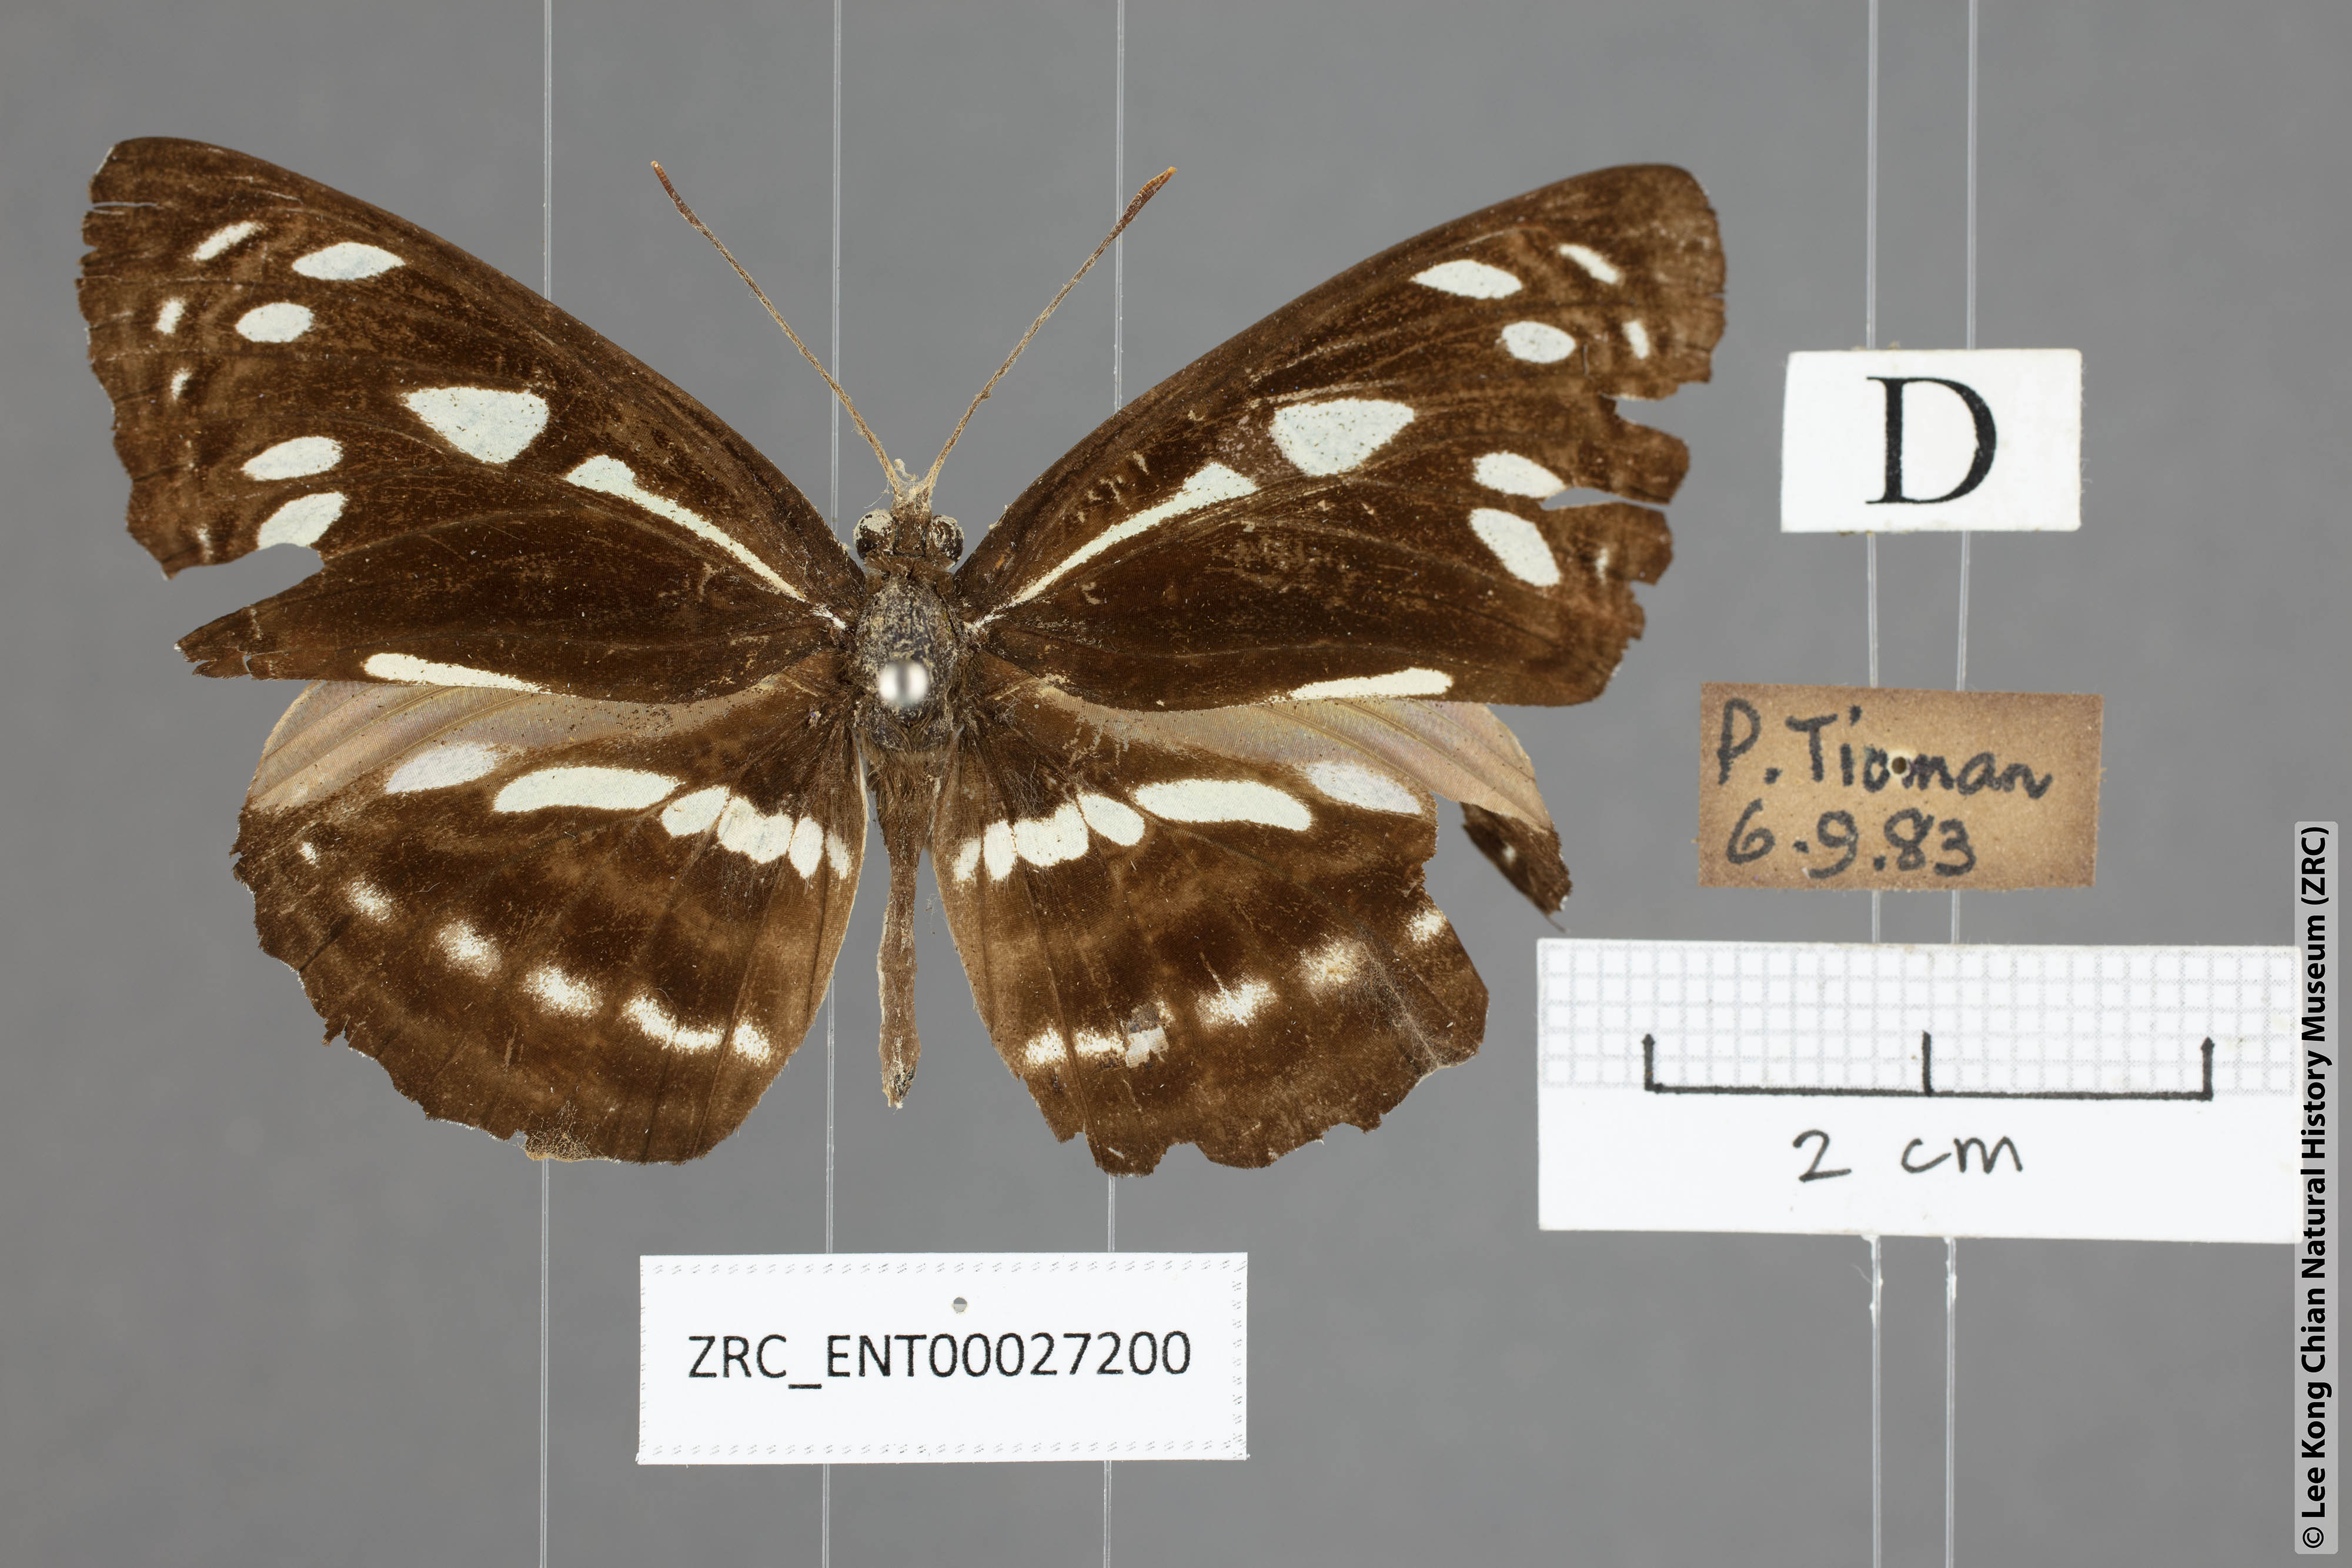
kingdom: Animalia
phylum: Arthropoda
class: Insecta
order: Lepidoptera
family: Nymphalidae
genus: Phaedyma
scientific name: Phaedyma columella
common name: Short banded sailer
